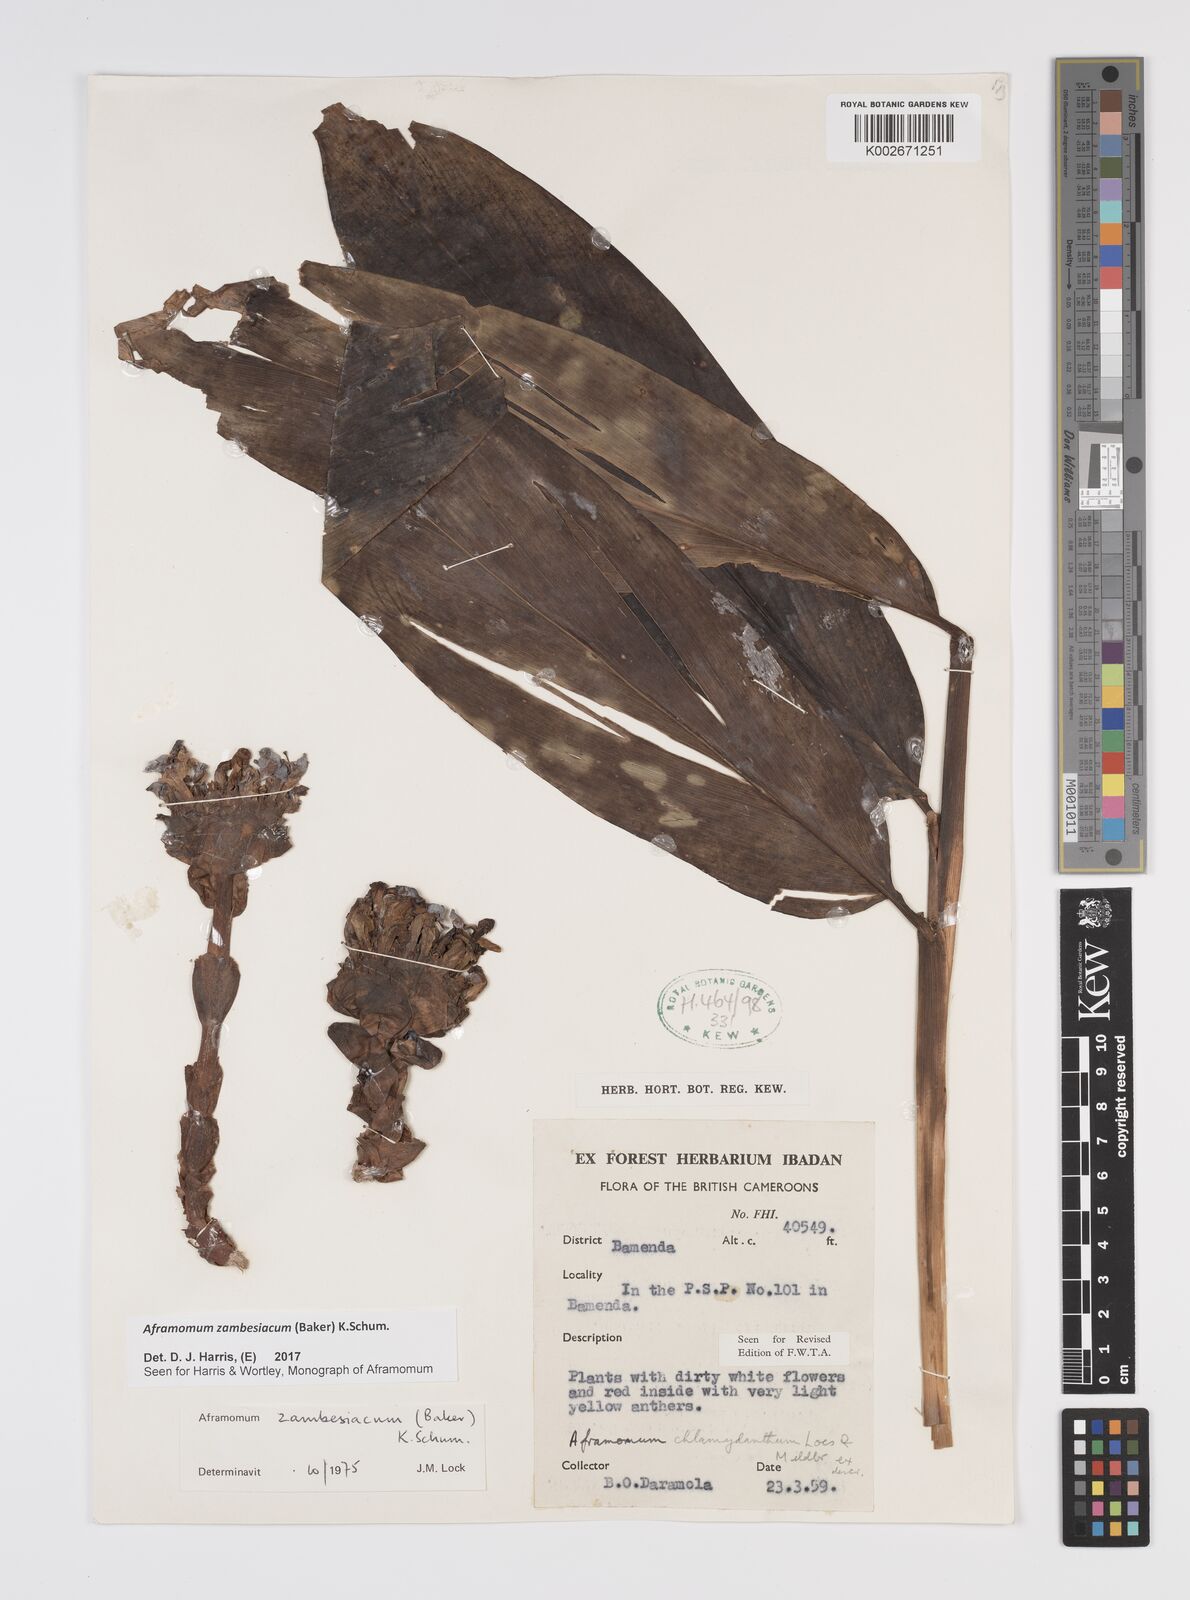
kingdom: Plantae
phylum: Tracheophyta
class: Liliopsida
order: Zingiberales
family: Zingiberaceae
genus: Aframomum
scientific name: Aframomum zambesiacum
